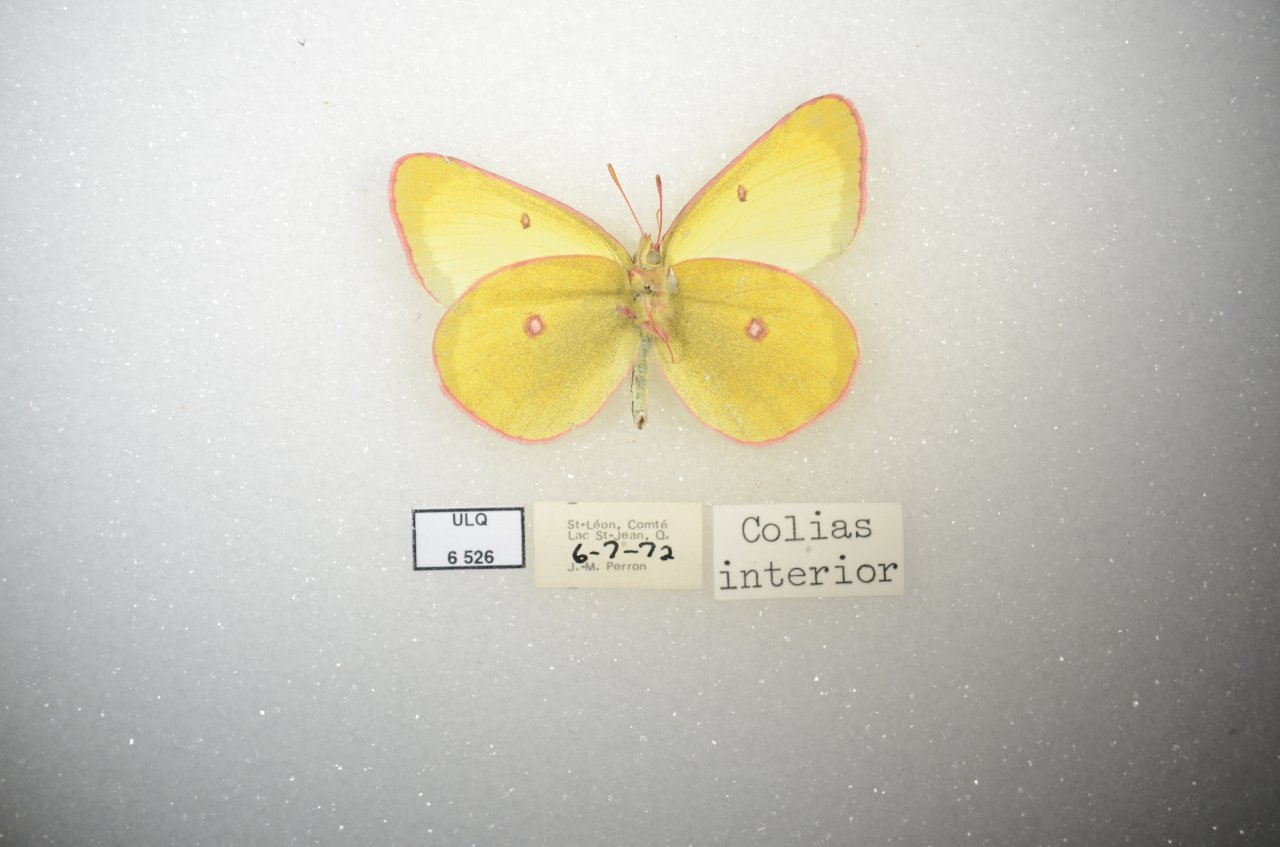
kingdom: Animalia
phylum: Arthropoda
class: Insecta
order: Lepidoptera
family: Pieridae
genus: Colias
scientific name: Colias interior
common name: Pink-edged Sulphur
